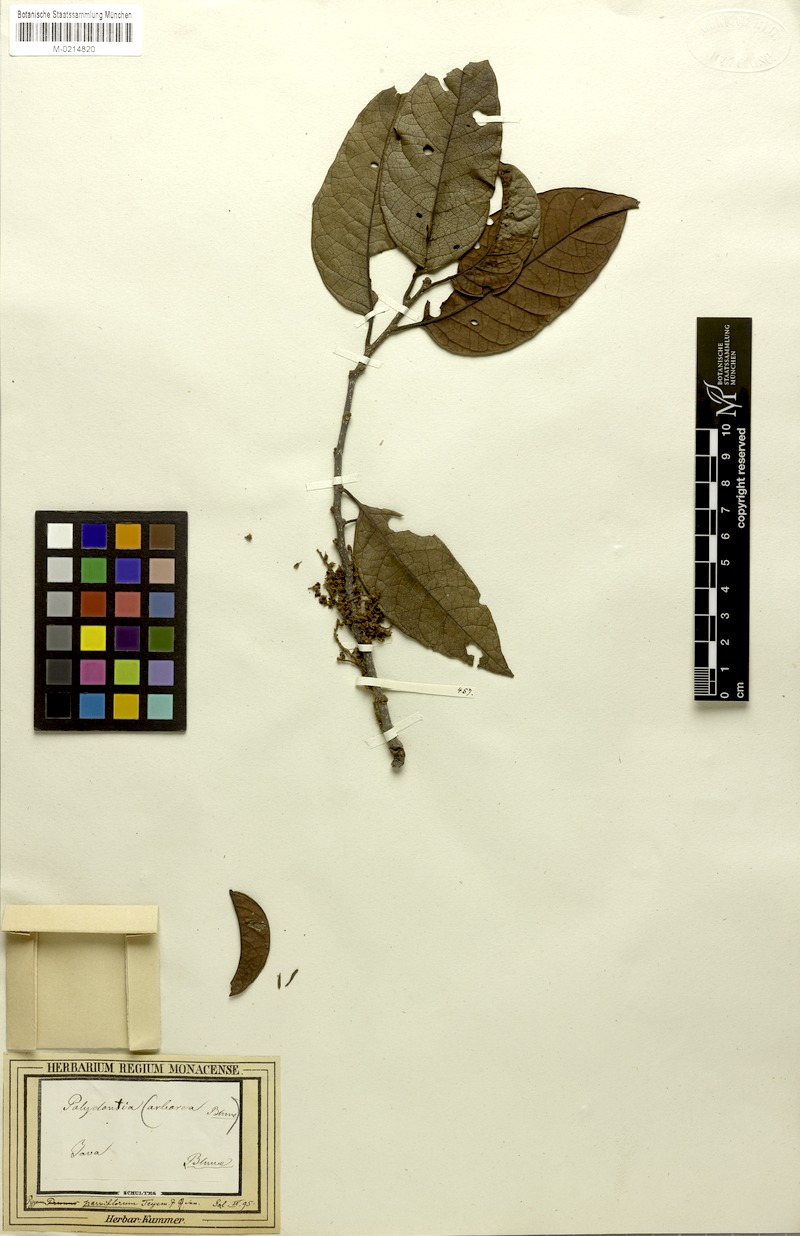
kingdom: Plantae
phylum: Tracheophyta
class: Magnoliopsida
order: Rosales
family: Rosaceae
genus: Prunus
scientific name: Prunus arborea
